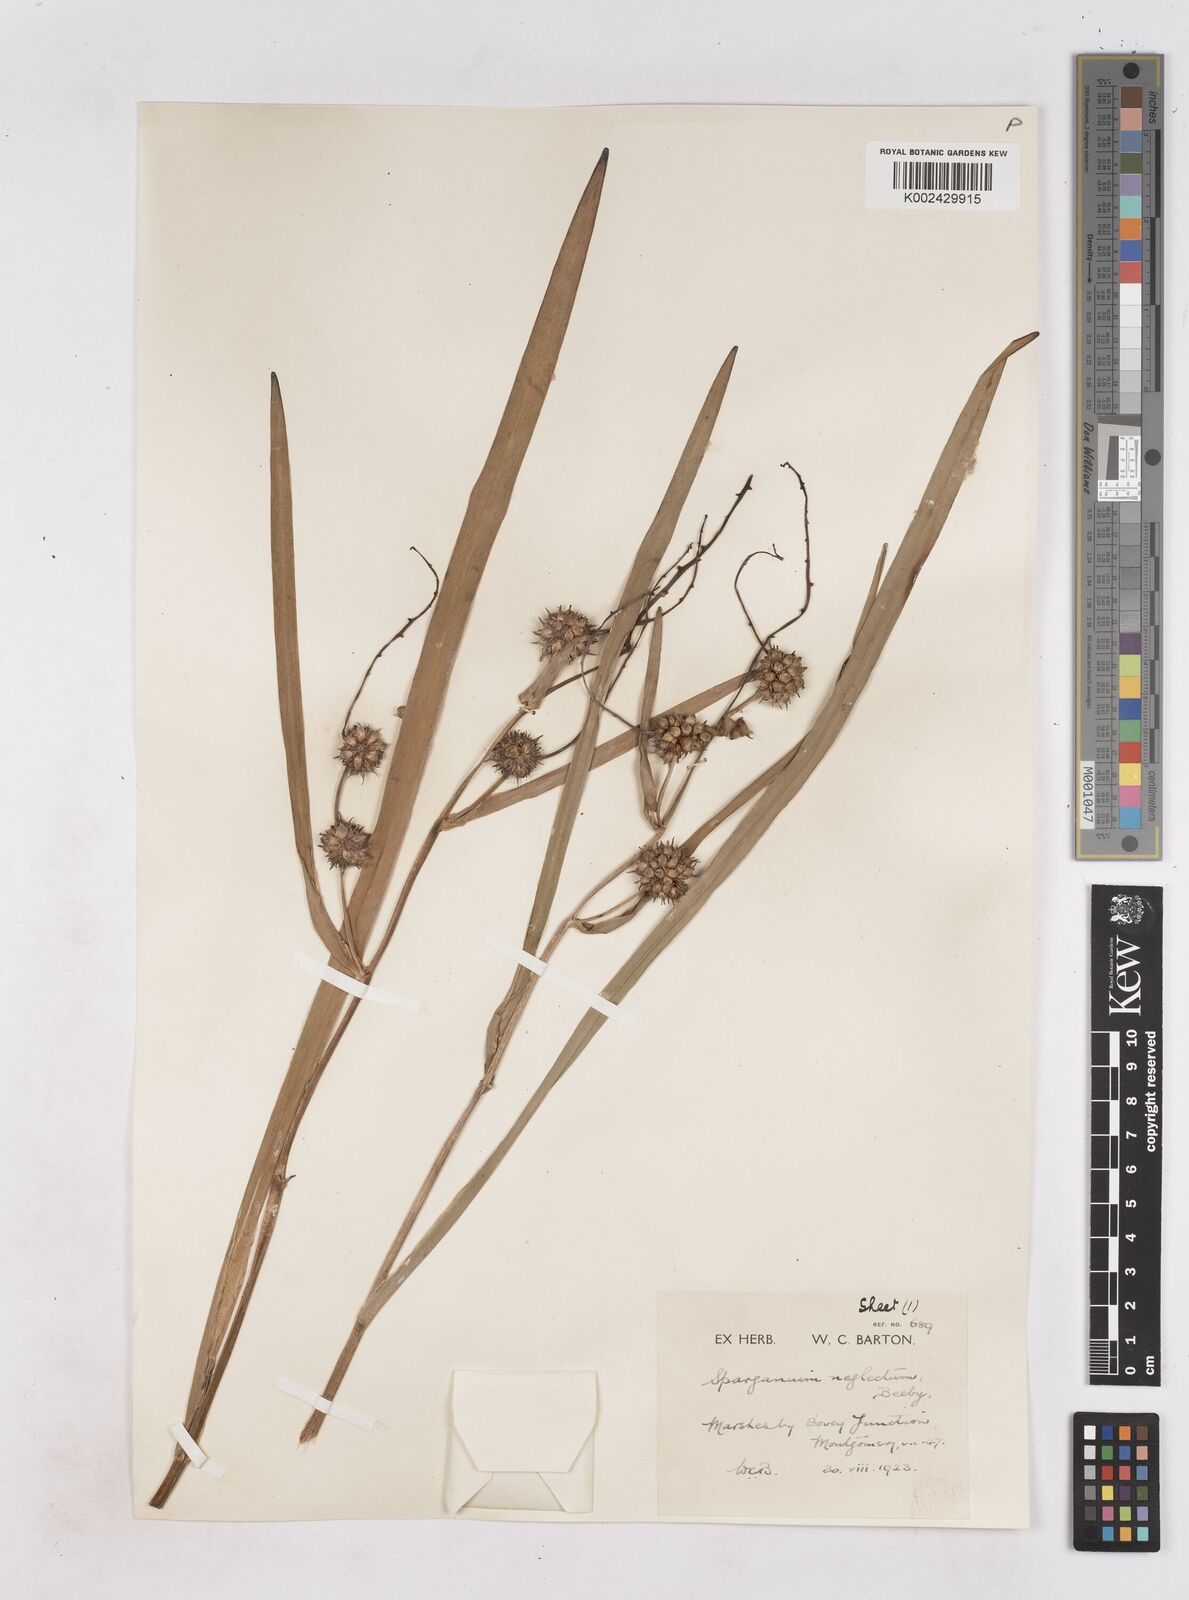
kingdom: Plantae
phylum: Tracheophyta
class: Liliopsida
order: Poales
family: Typhaceae
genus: Sparganium
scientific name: Sparganium erectum
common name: Branched bur-reed
